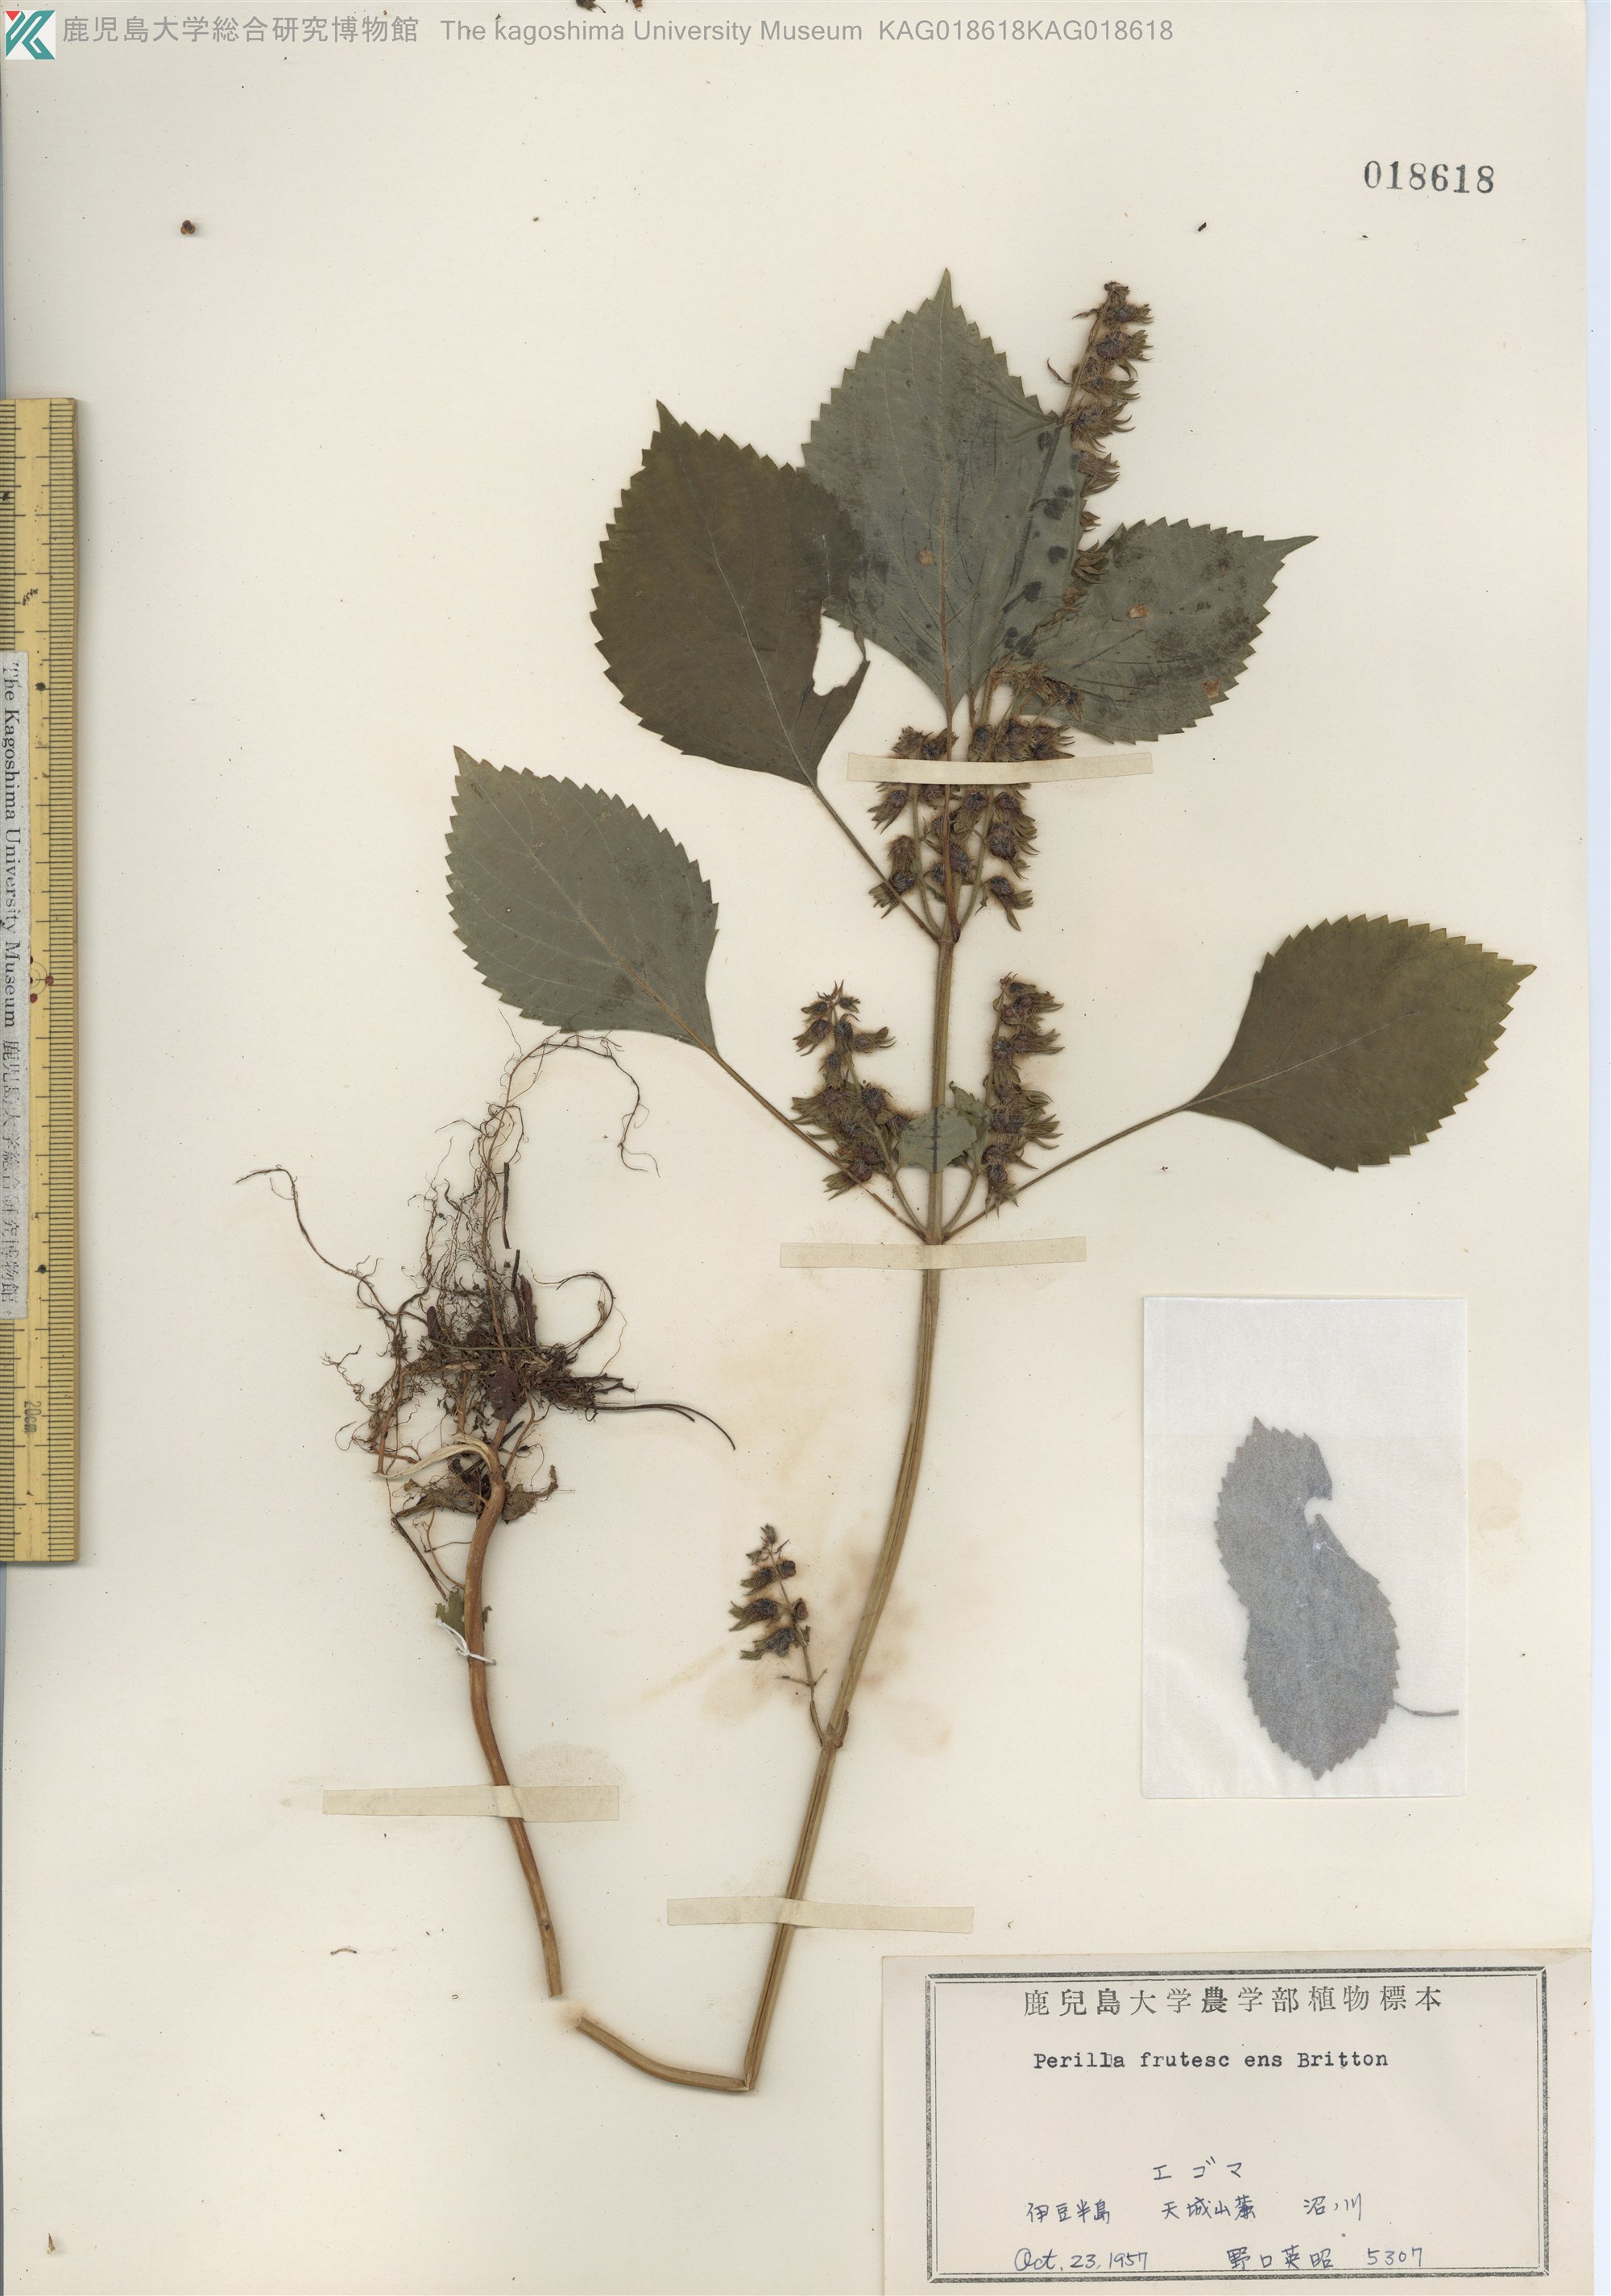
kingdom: Plantae
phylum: Tracheophyta
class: Magnoliopsida
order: Lamiales
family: Lamiaceae
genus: Perilla
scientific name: Perilla frutescens
